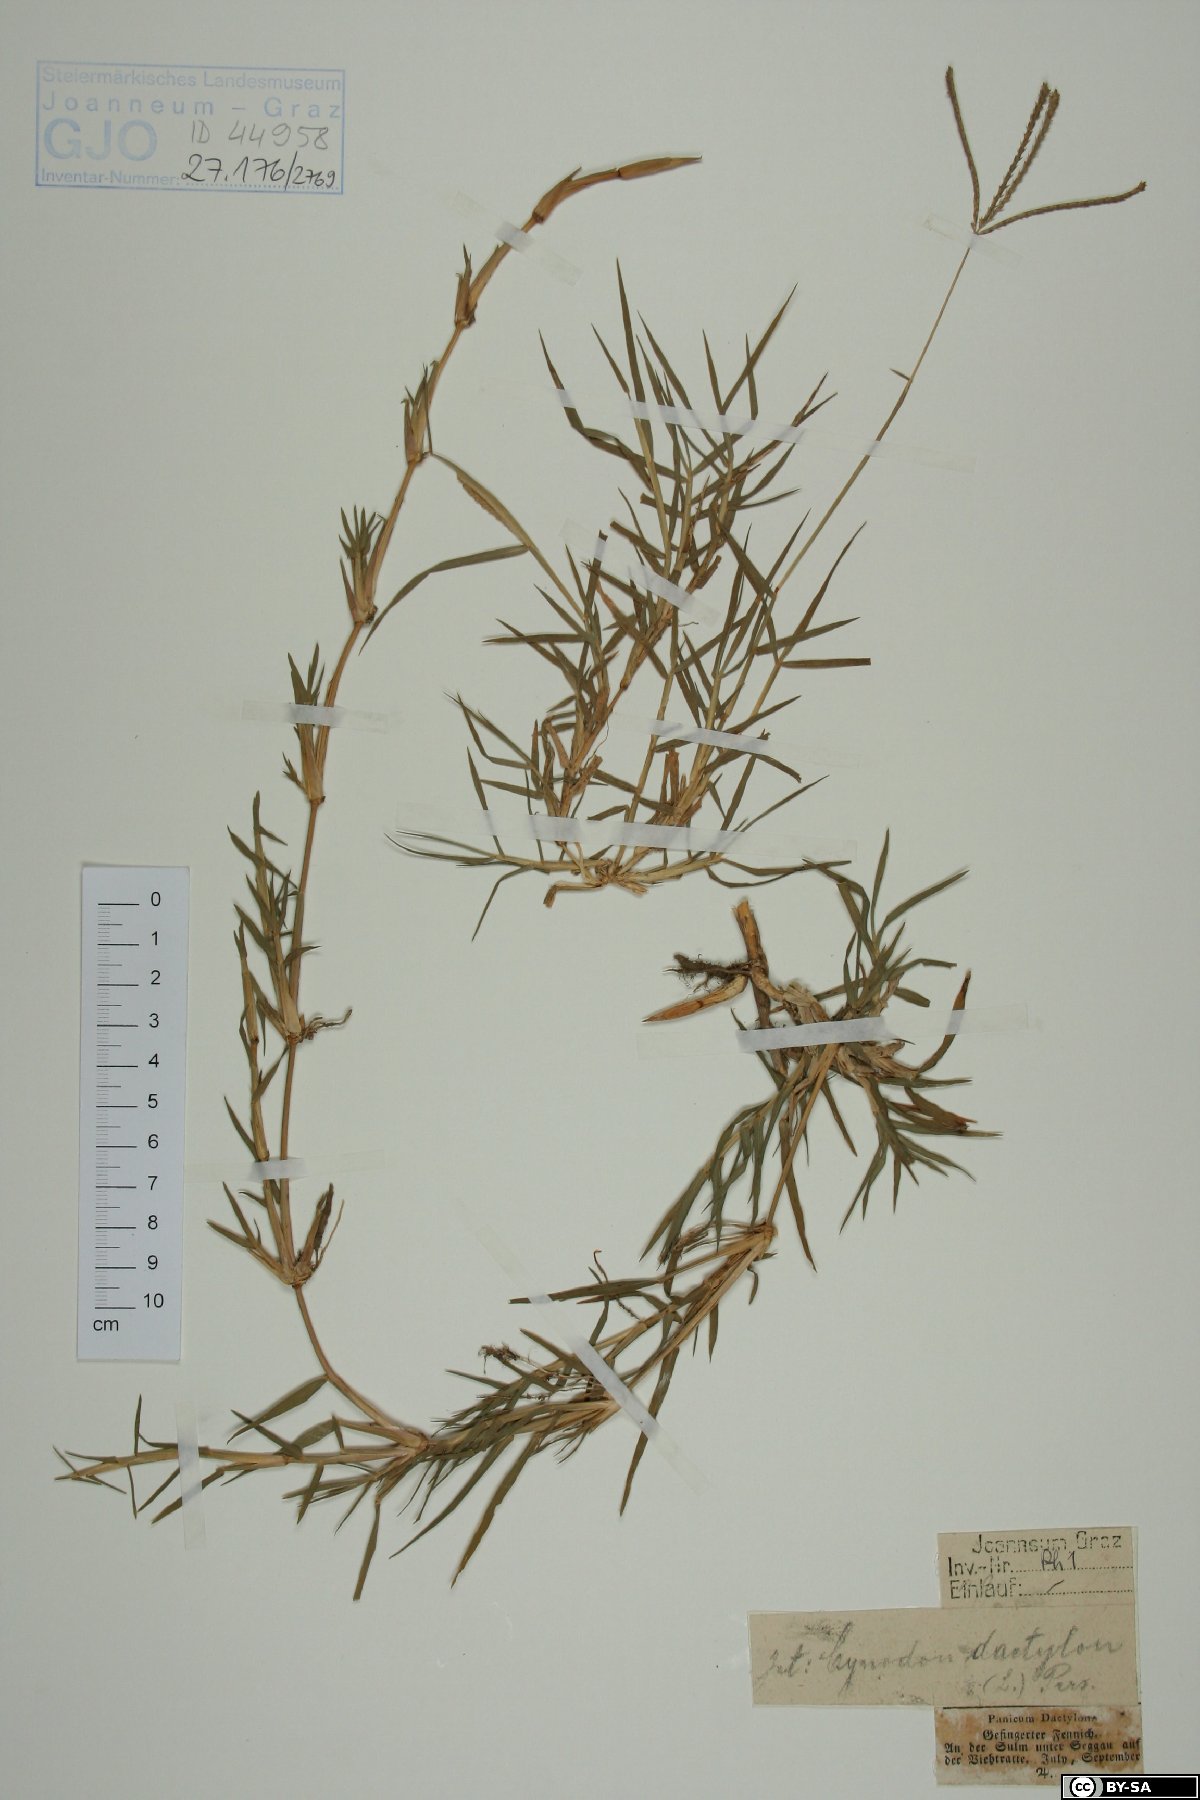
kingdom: Plantae
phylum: Tracheophyta
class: Liliopsida
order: Poales
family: Poaceae
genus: Cynodon
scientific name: Cynodon dactylon
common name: Bermuda grass
